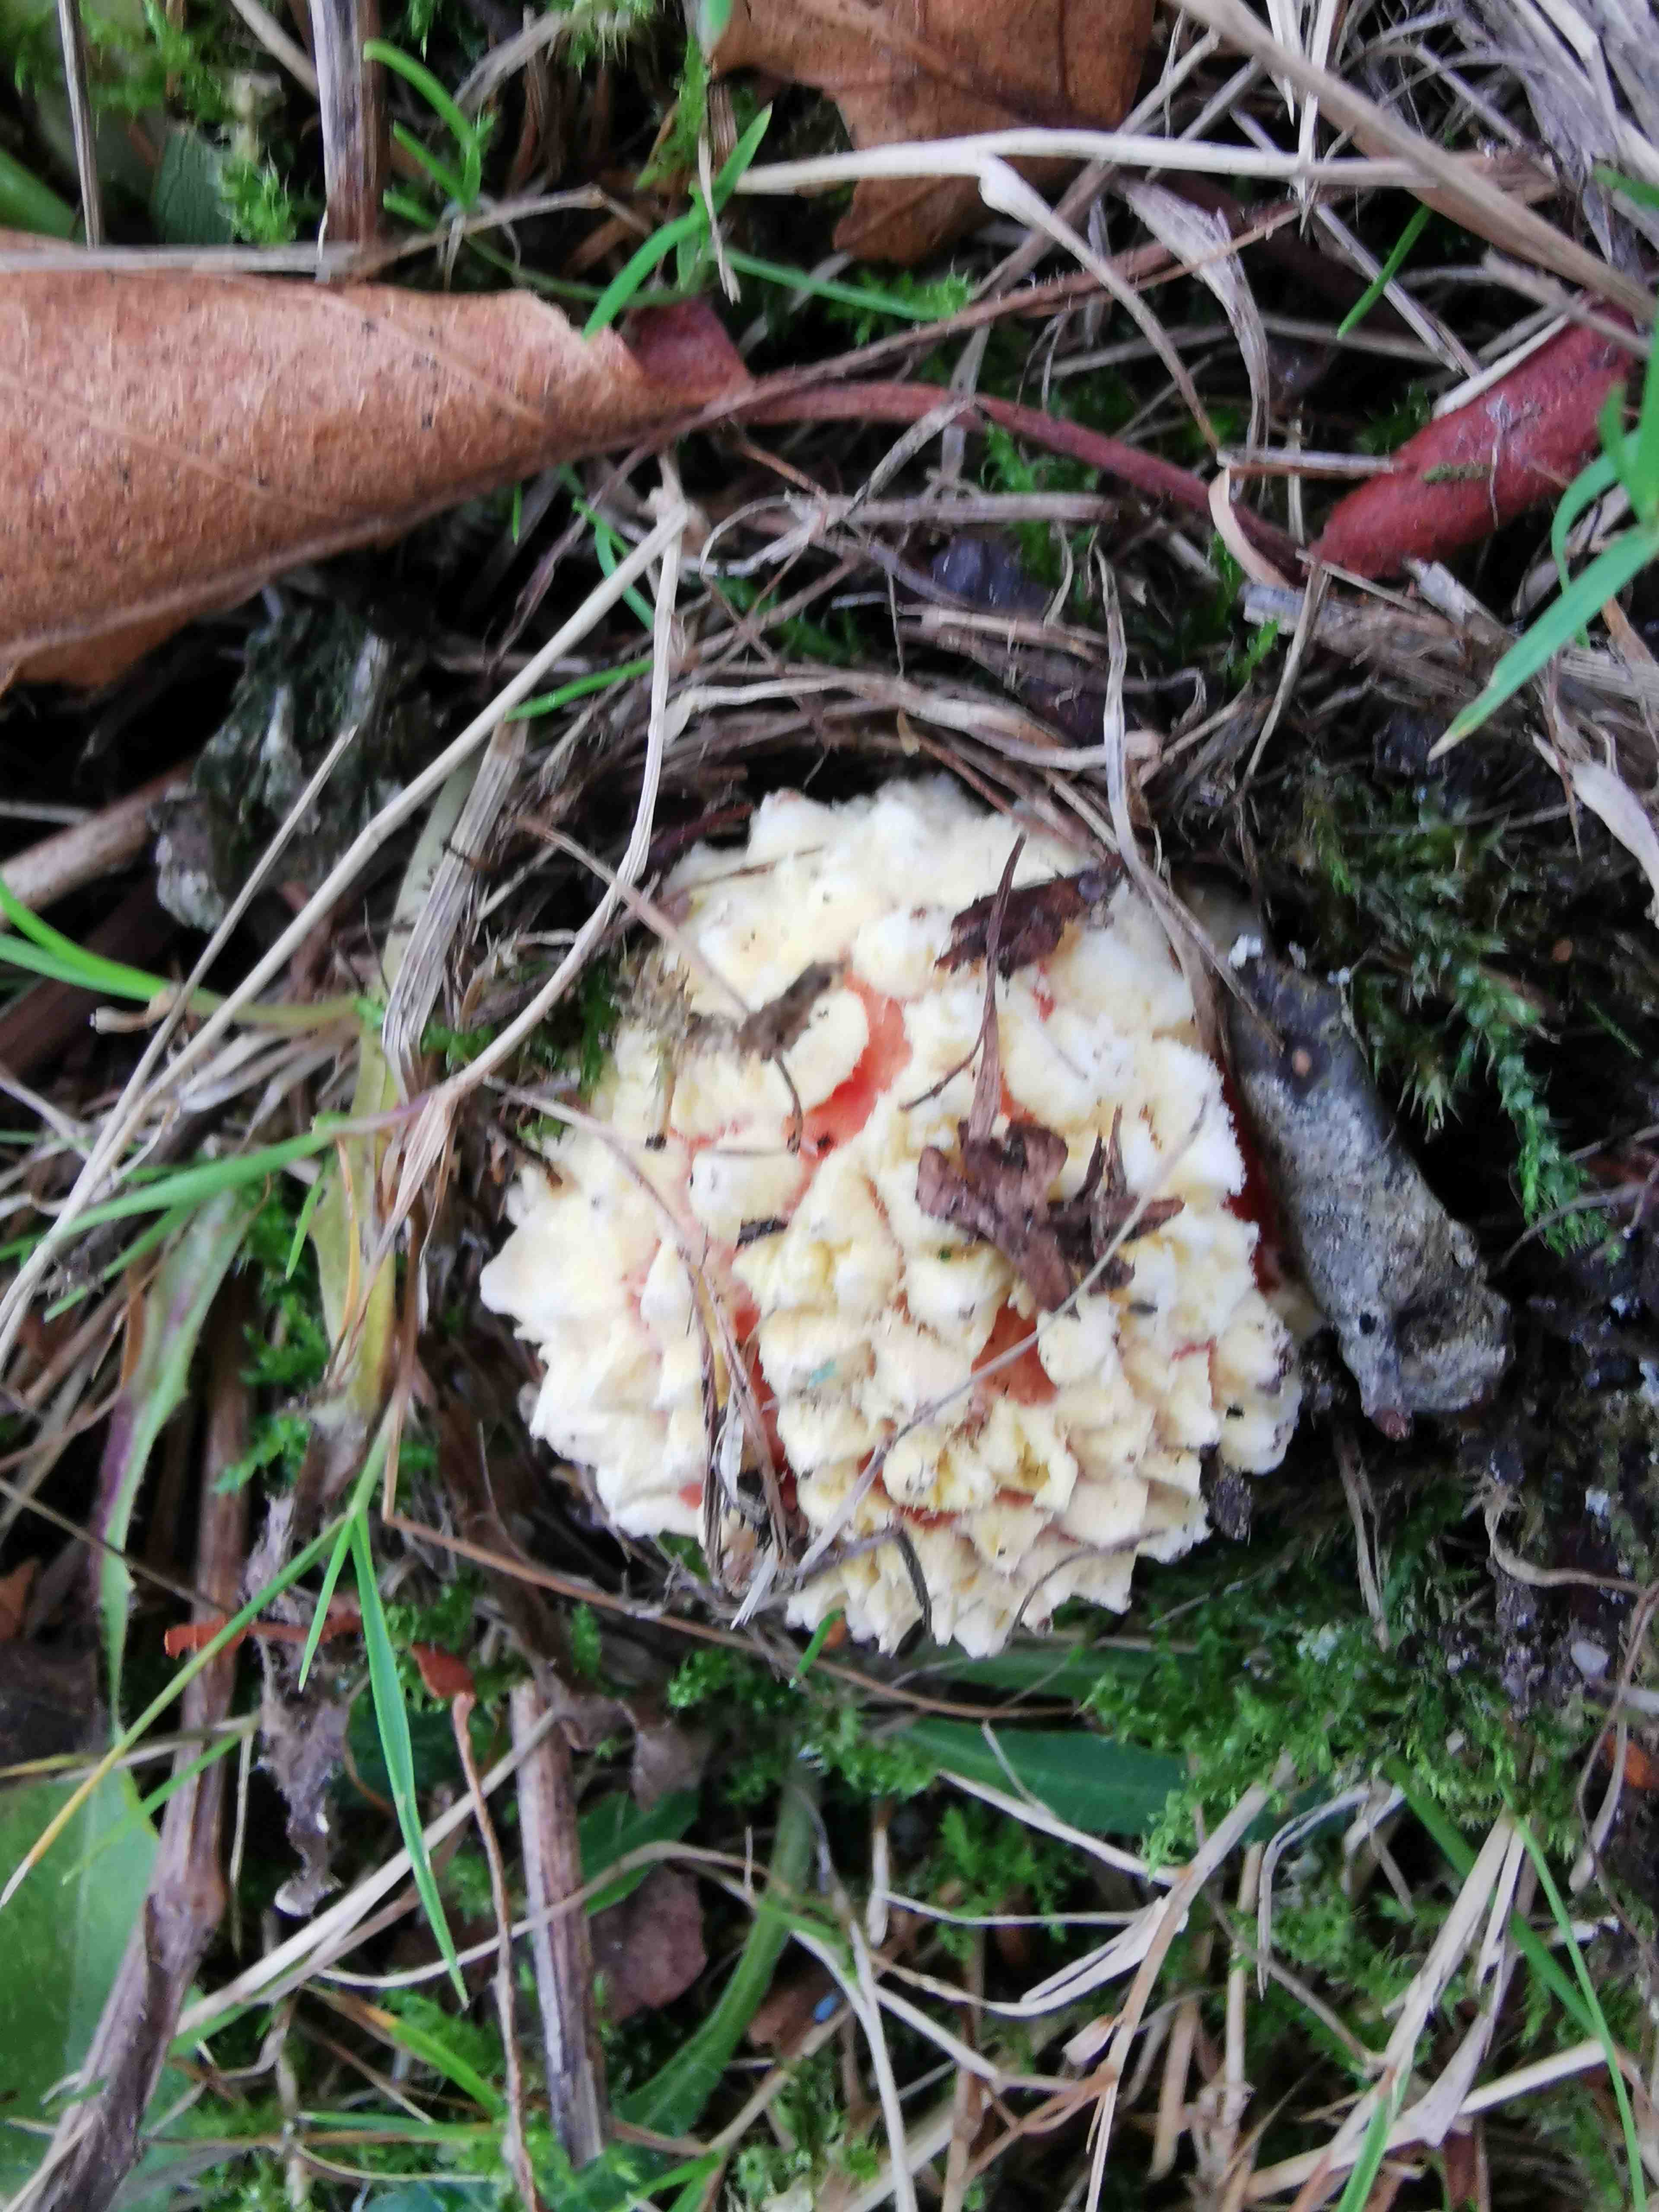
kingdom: Fungi
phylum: Basidiomycota
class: Agaricomycetes
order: Agaricales
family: Amanitaceae
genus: Amanita
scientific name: Amanita muscaria
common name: rød fluesvamp
